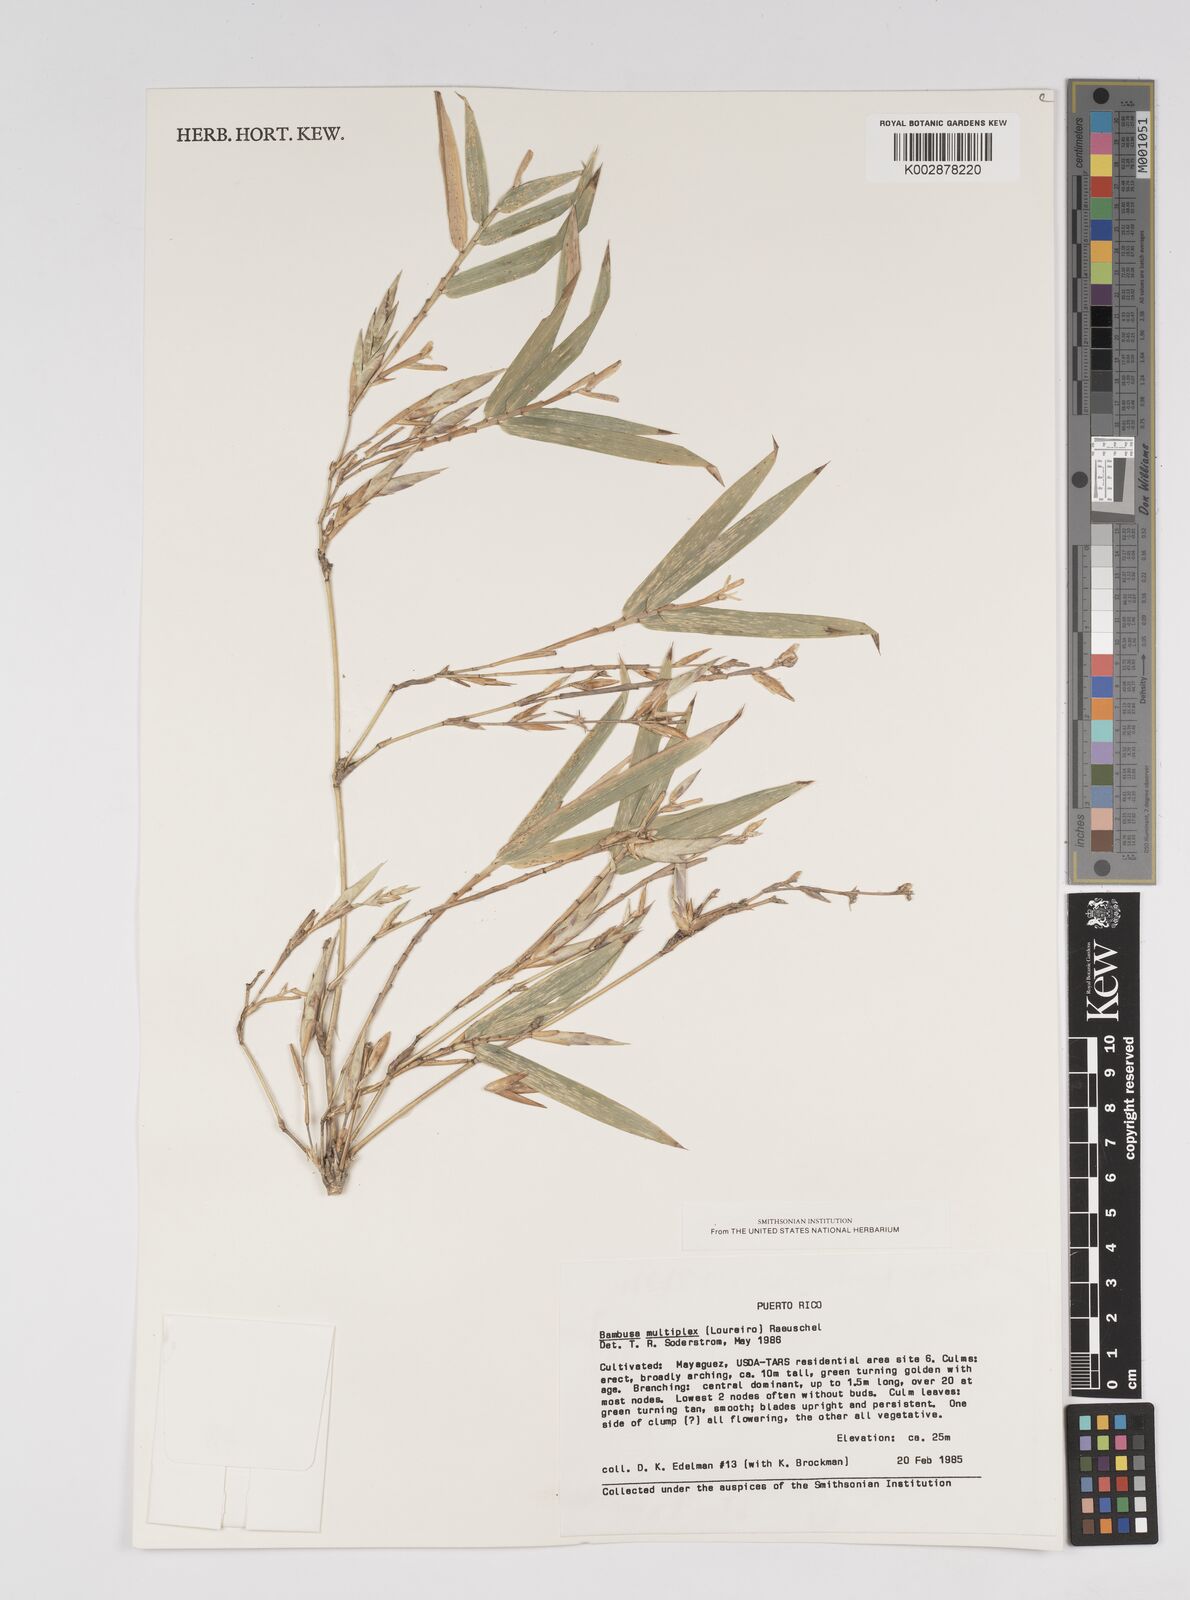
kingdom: Plantae
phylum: Tracheophyta
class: Liliopsida
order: Poales
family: Poaceae
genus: Bambusa
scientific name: Bambusa multiplex
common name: Hedge bamboo
